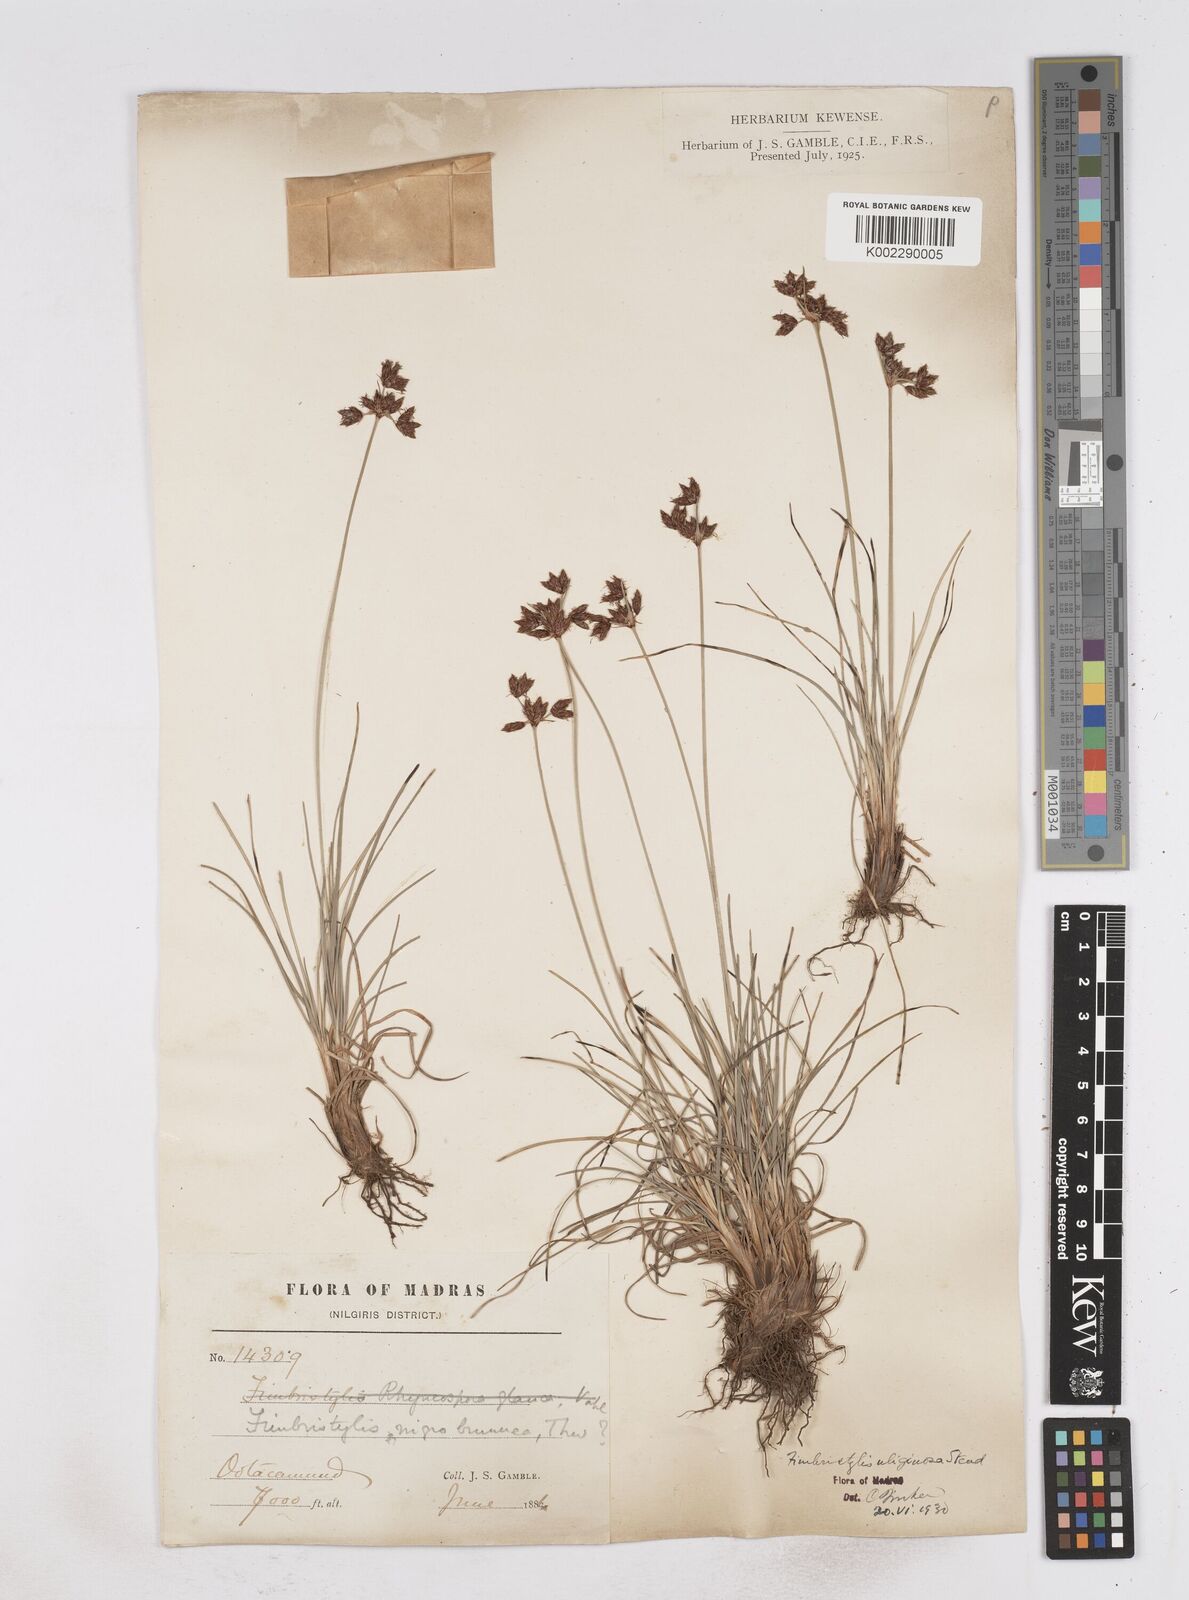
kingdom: Plantae
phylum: Tracheophyta
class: Liliopsida
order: Poales
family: Cyperaceae
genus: Fimbristylis
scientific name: Fimbristylis uliginosa
